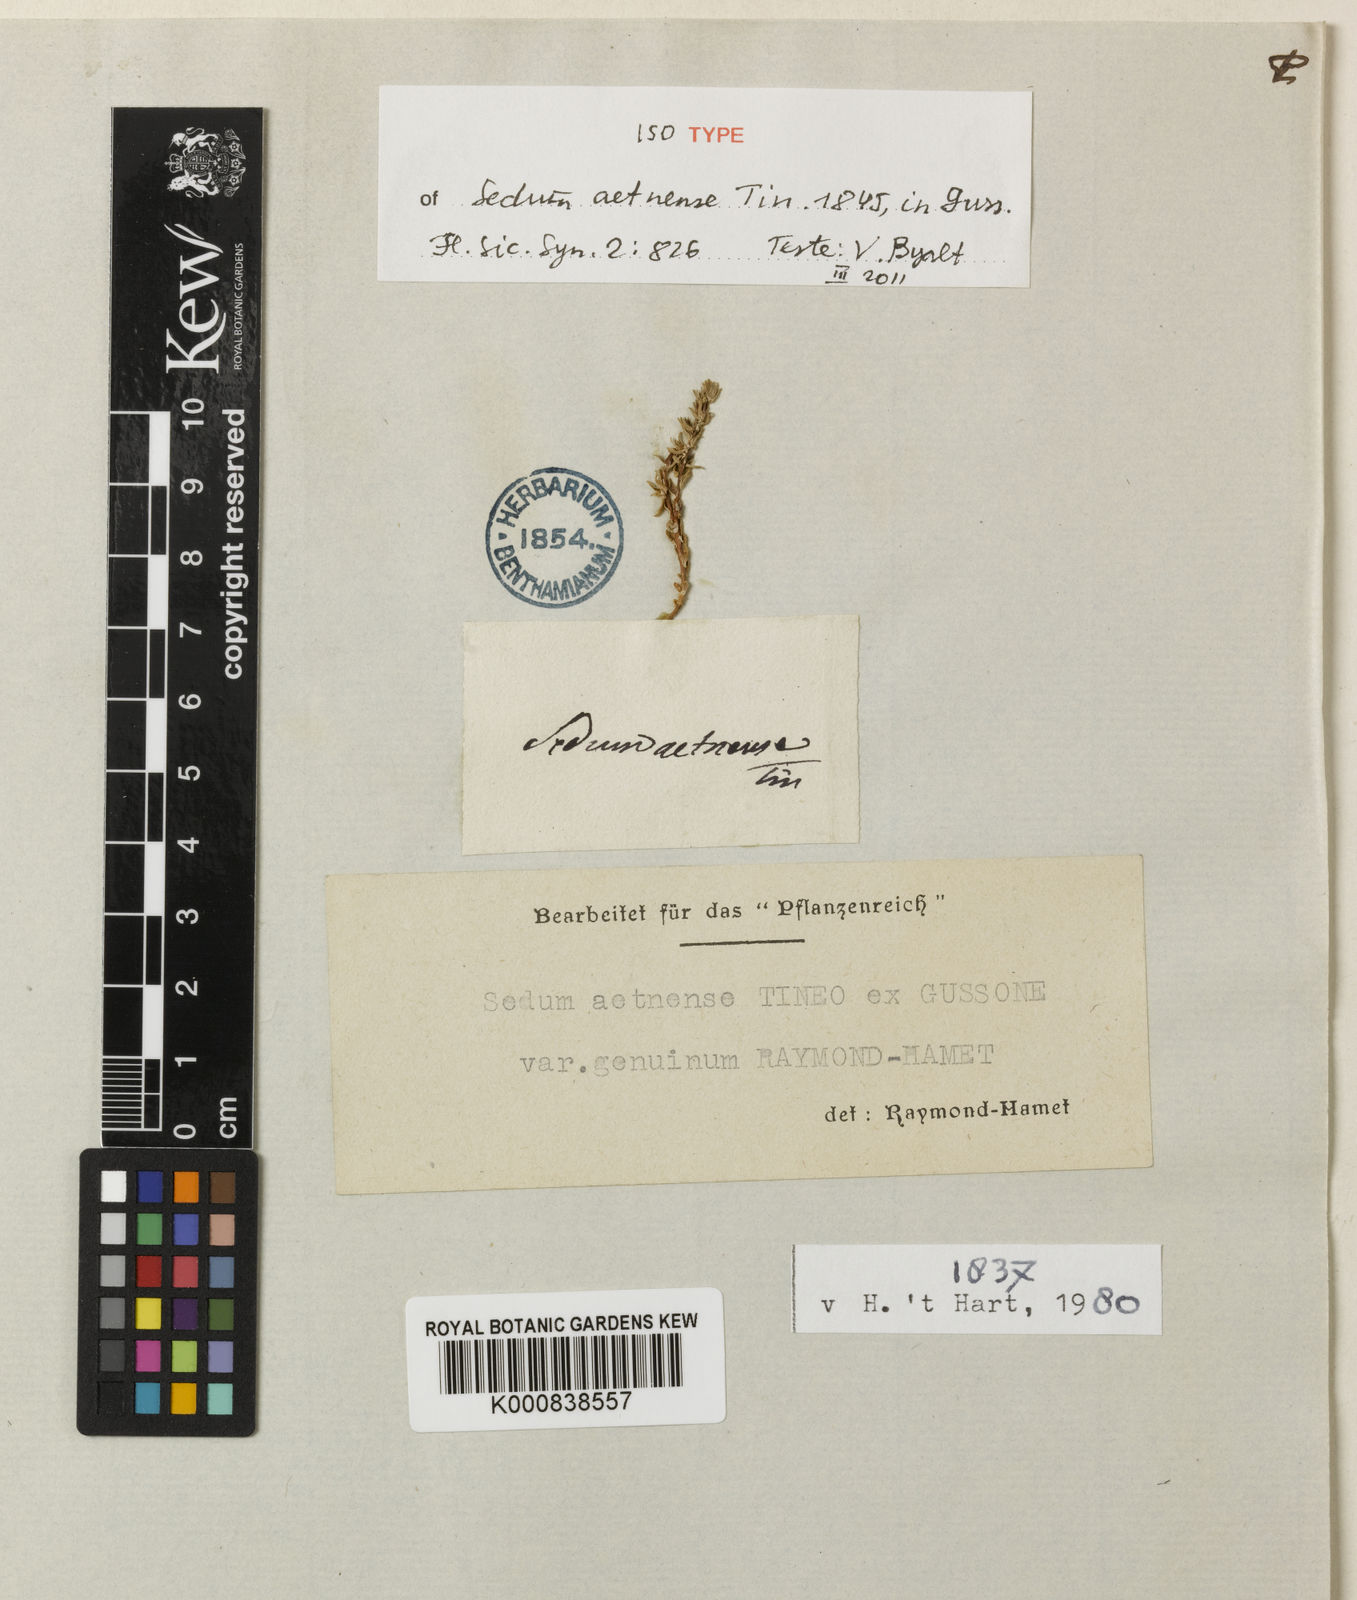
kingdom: Plantae
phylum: Tracheophyta
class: Magnoliopsida
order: Saxifragales
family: Crassulaceae
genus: Sedum
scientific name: Sedum aetnense
